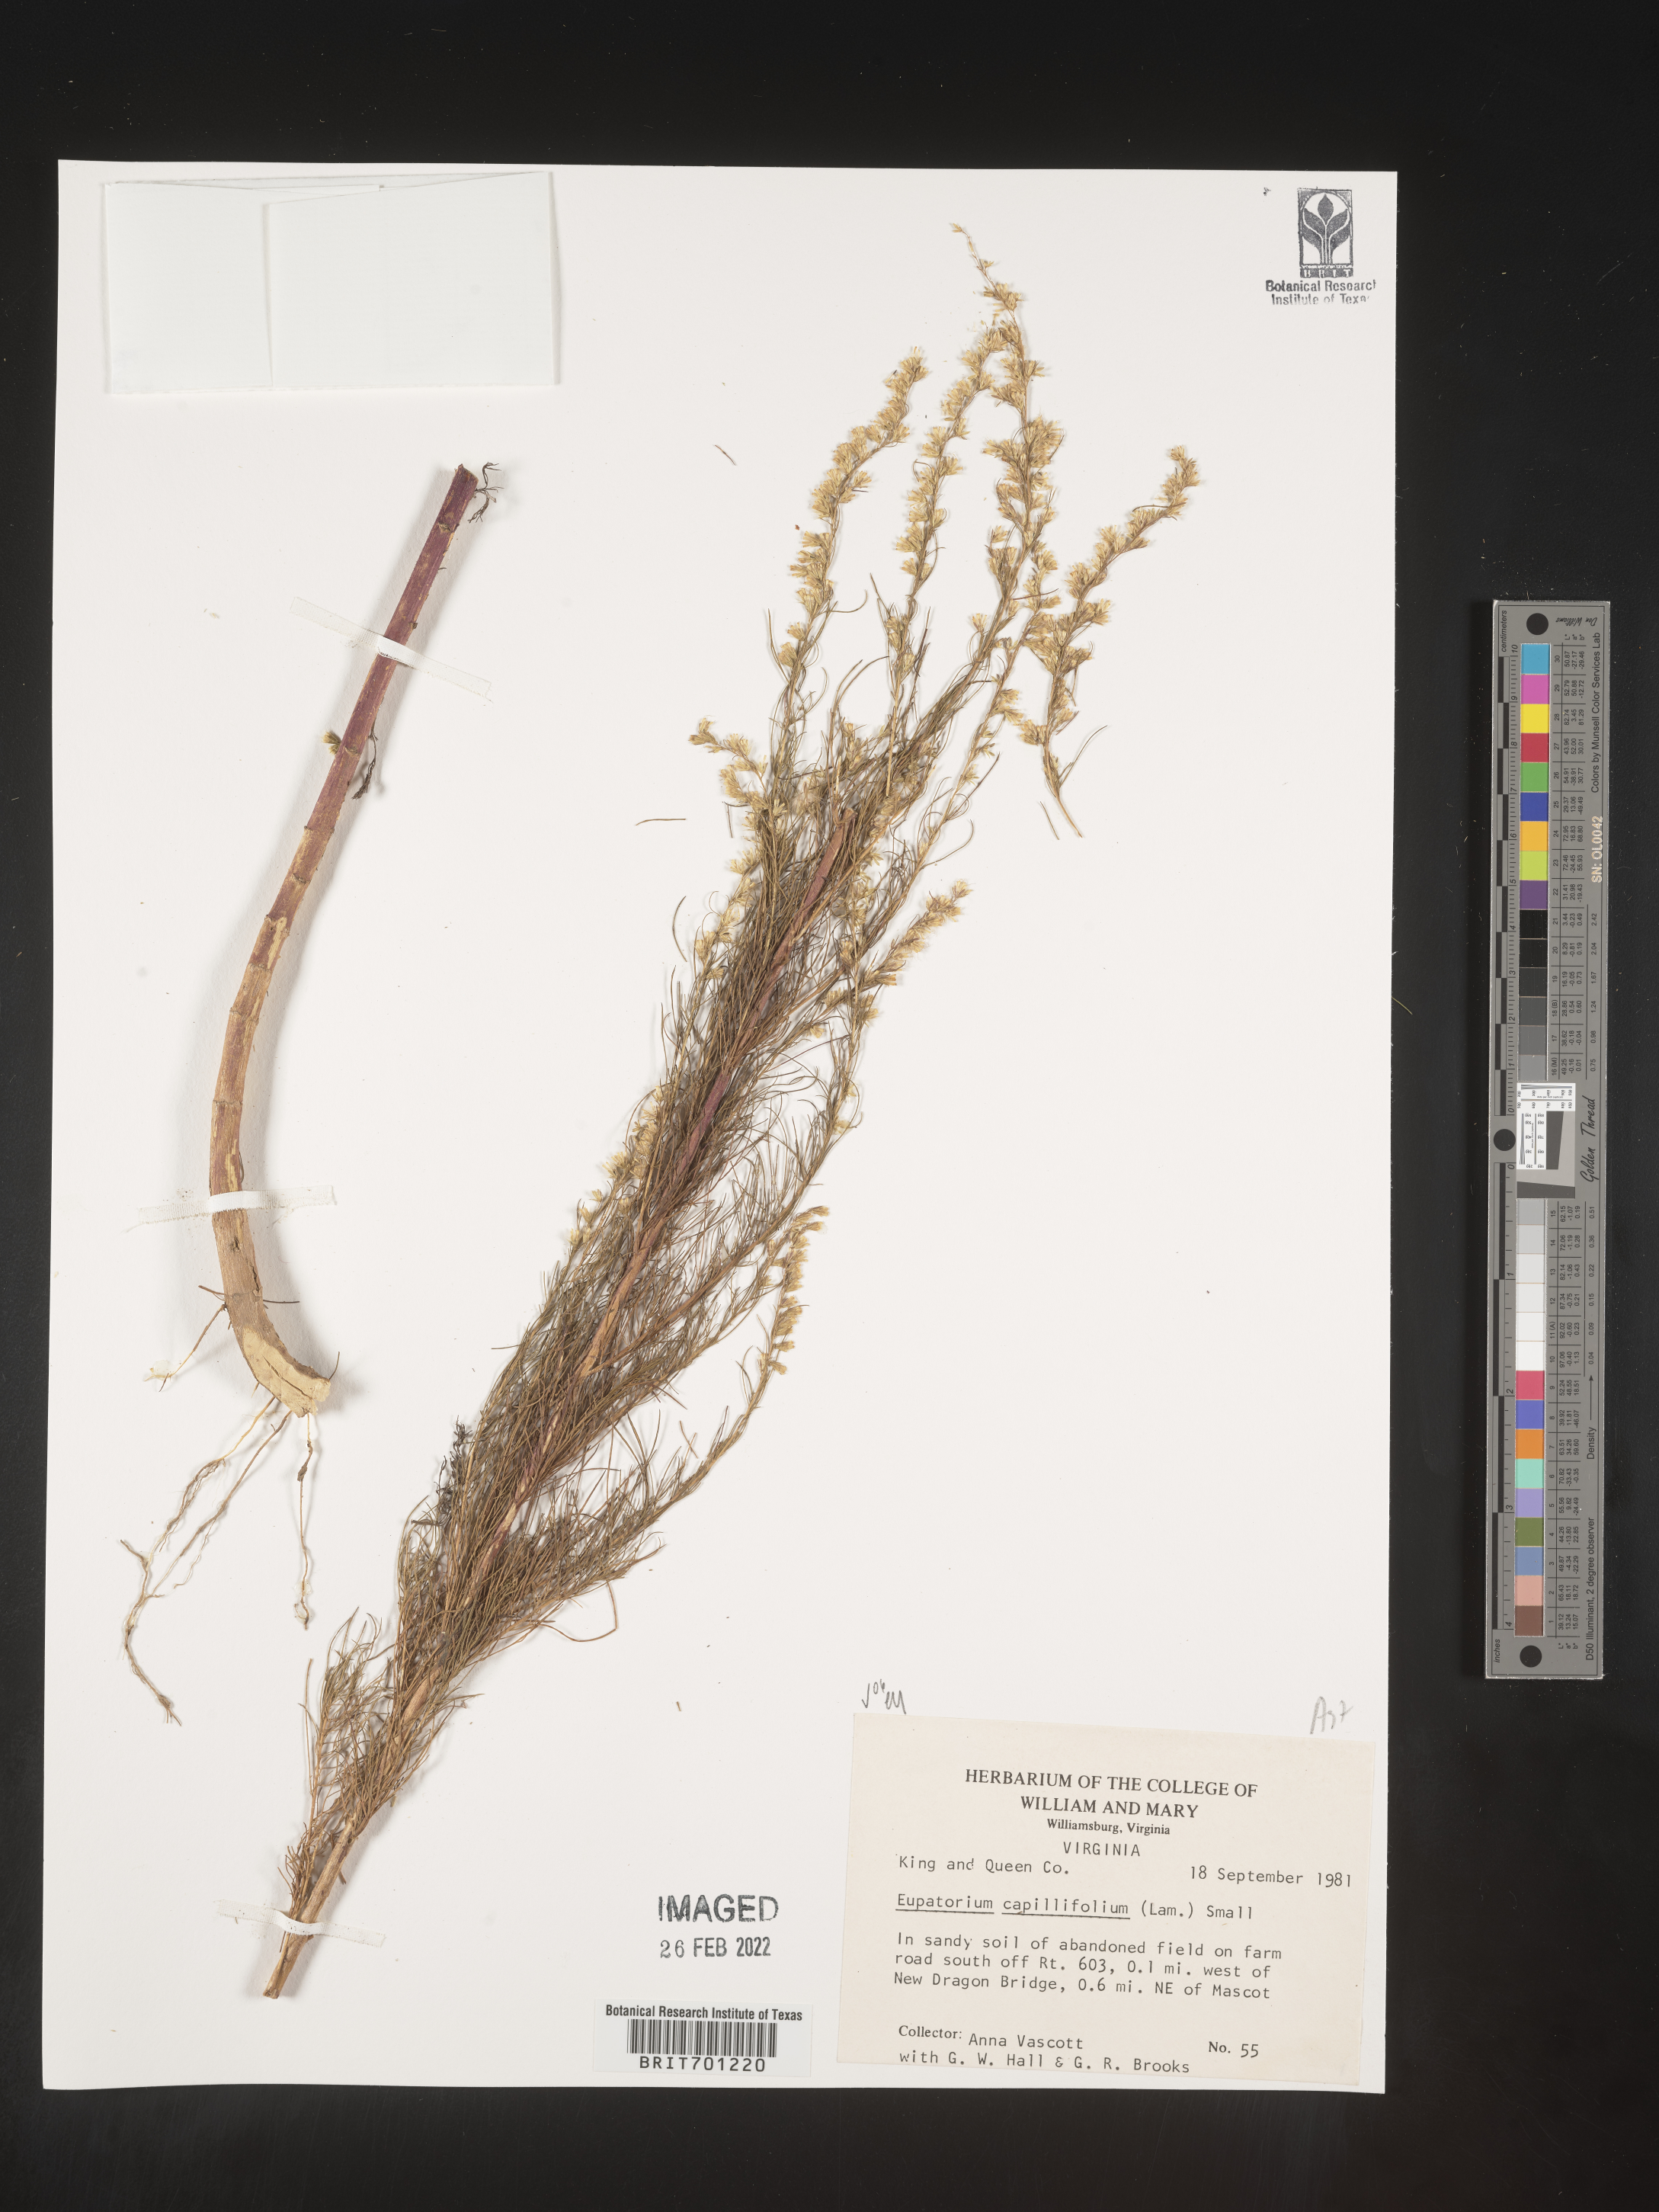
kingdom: Plantae
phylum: Tracheophyta
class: Magnoliopsida
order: Asterales
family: Asteraceae
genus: Eupatorium
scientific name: Eupatorium capillifolium
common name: Dog-fennel
